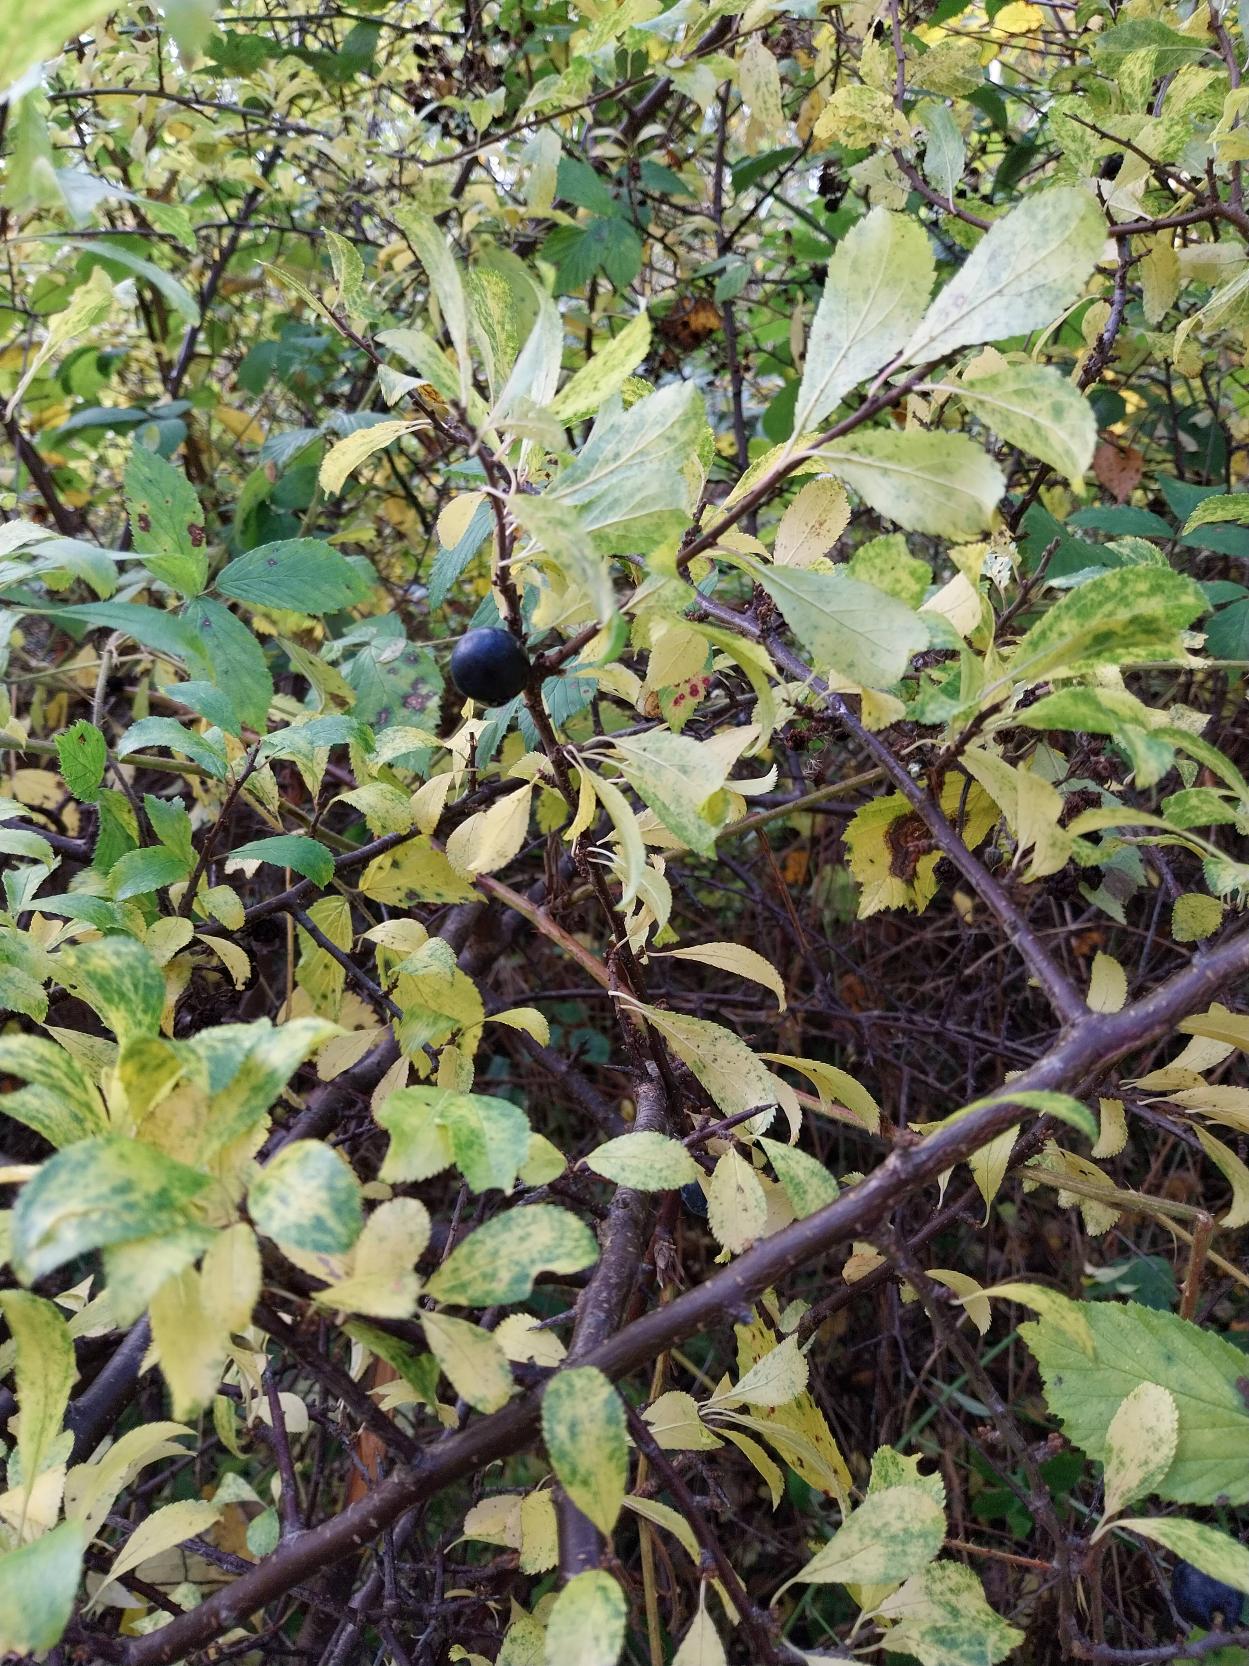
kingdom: Plantae
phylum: Tracheophyta
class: Magnoliopsida
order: Rosales
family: Rosaceae
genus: Prunus
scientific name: Prunus spinosa
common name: Slåen
